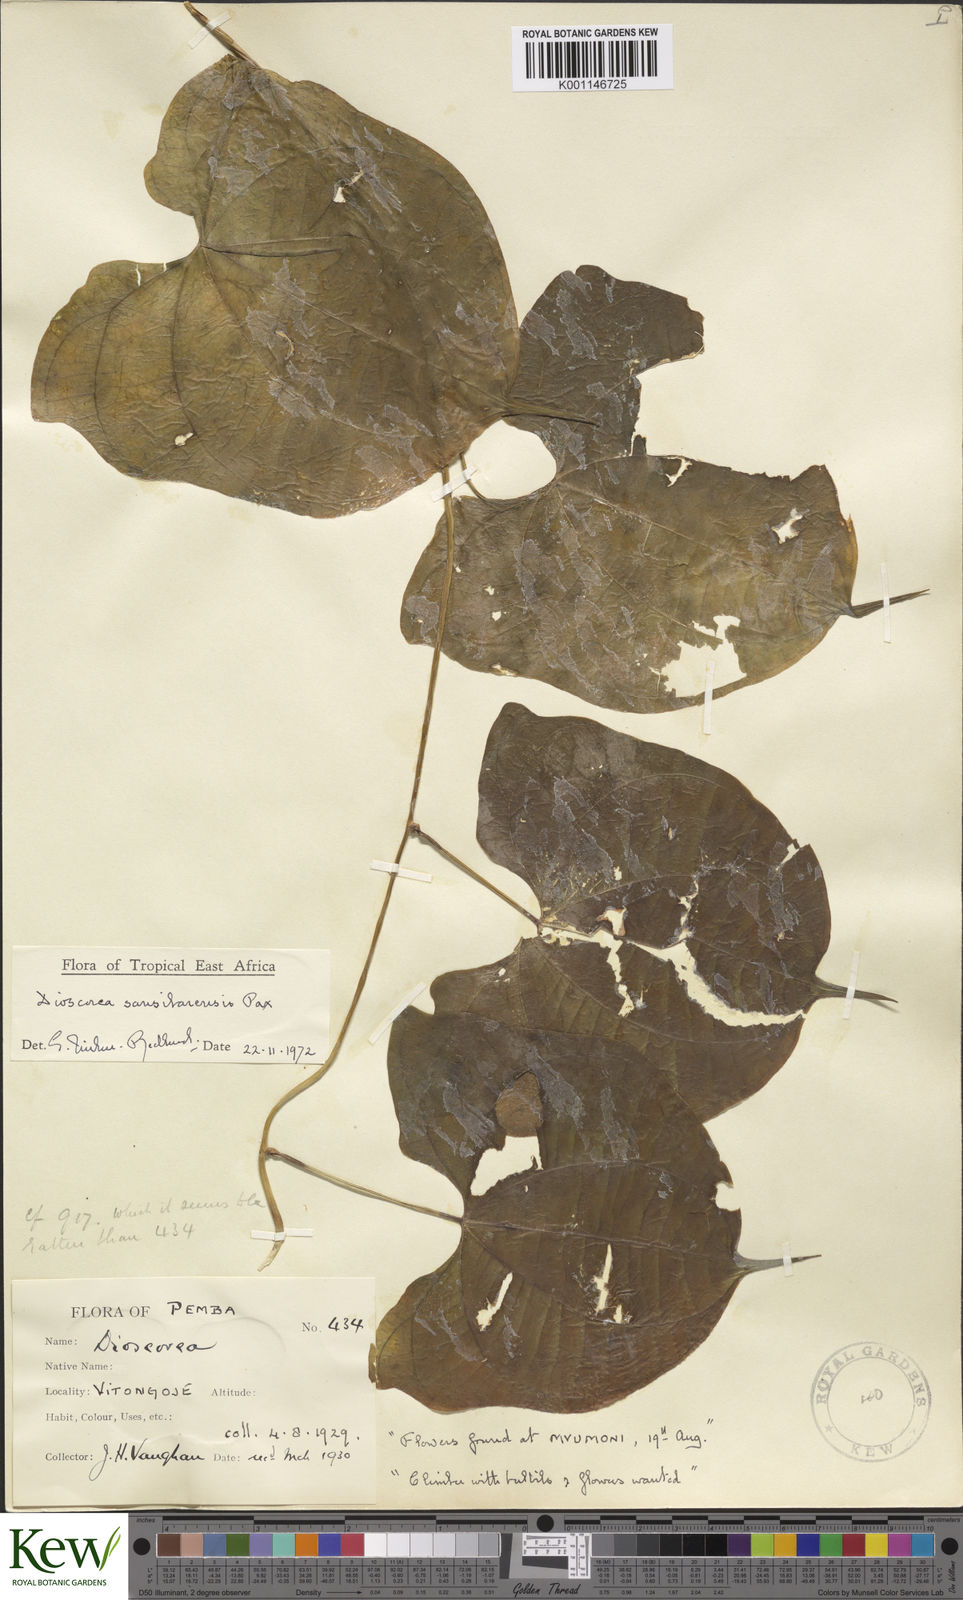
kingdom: Plantae
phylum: Tracheophyta
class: Liliopsida
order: Dioscoreales
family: Dioscoreaceae
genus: Dioscorea
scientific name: Dioscorea sansibarensis
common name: Zanzibar yam
